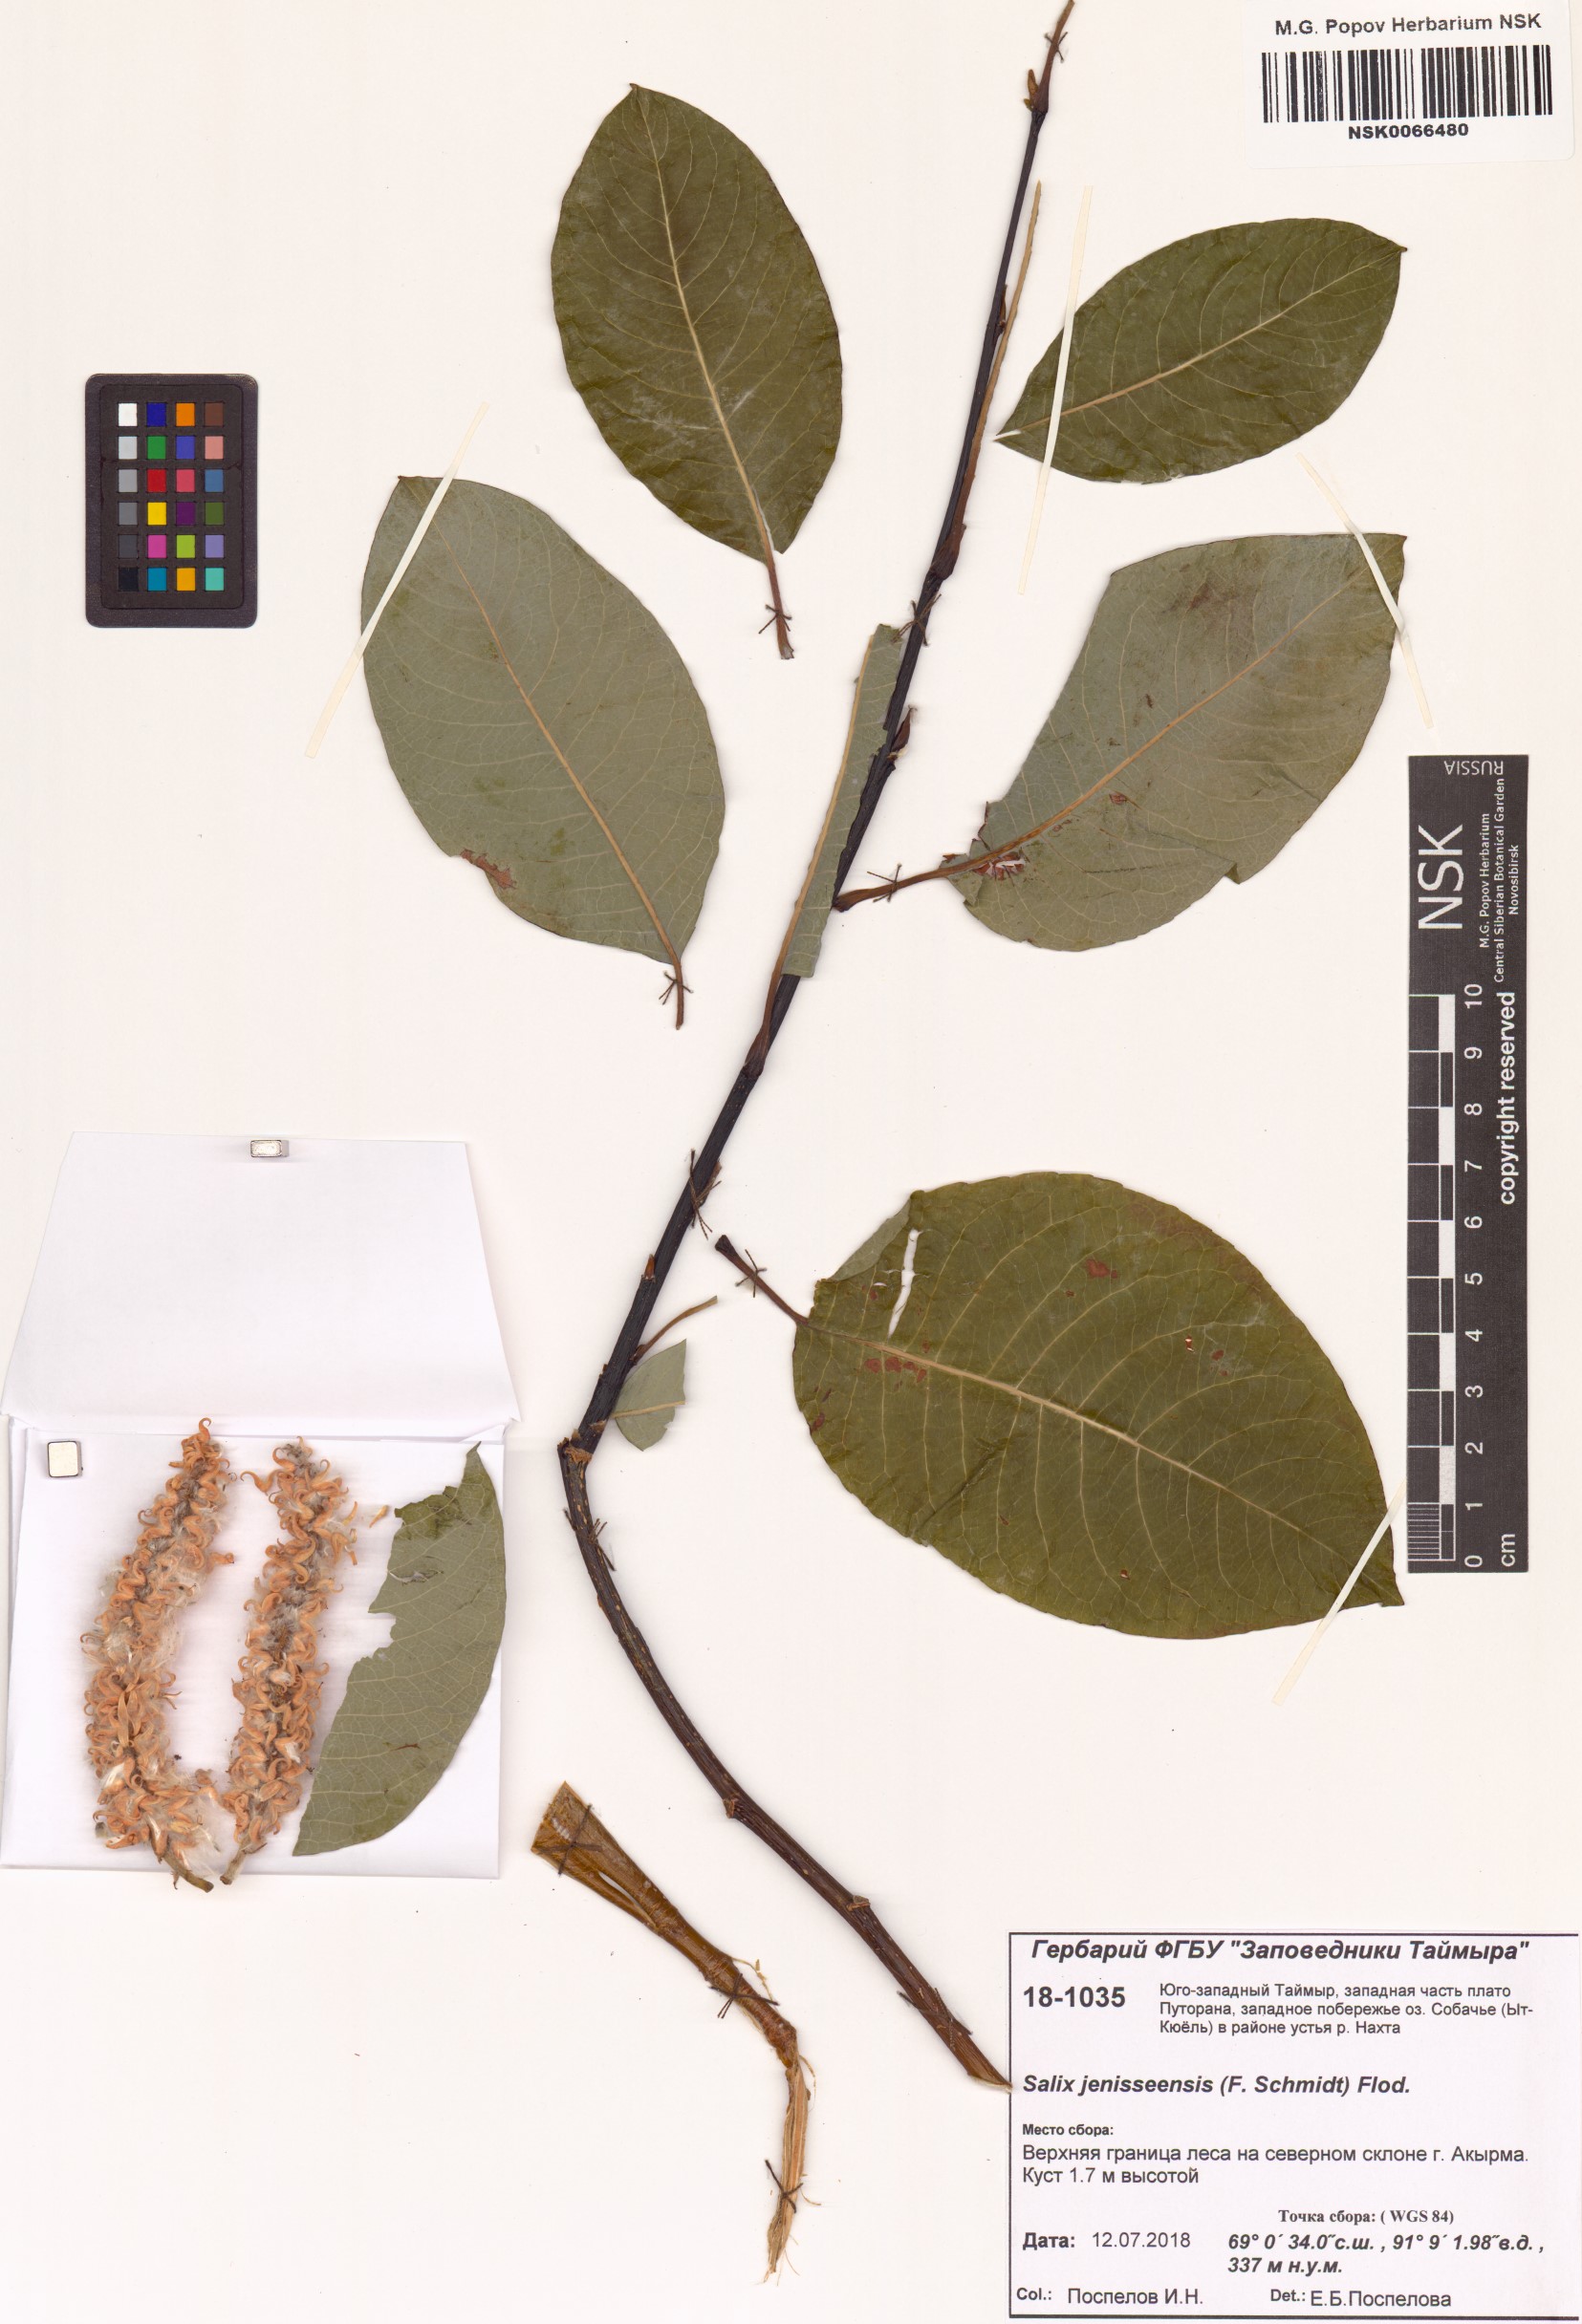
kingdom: Plantae
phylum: Tracheophyta
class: Magnoliopsida
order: Malpighiales
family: Salicaceae
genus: Salix
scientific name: Salix jenisseensis
